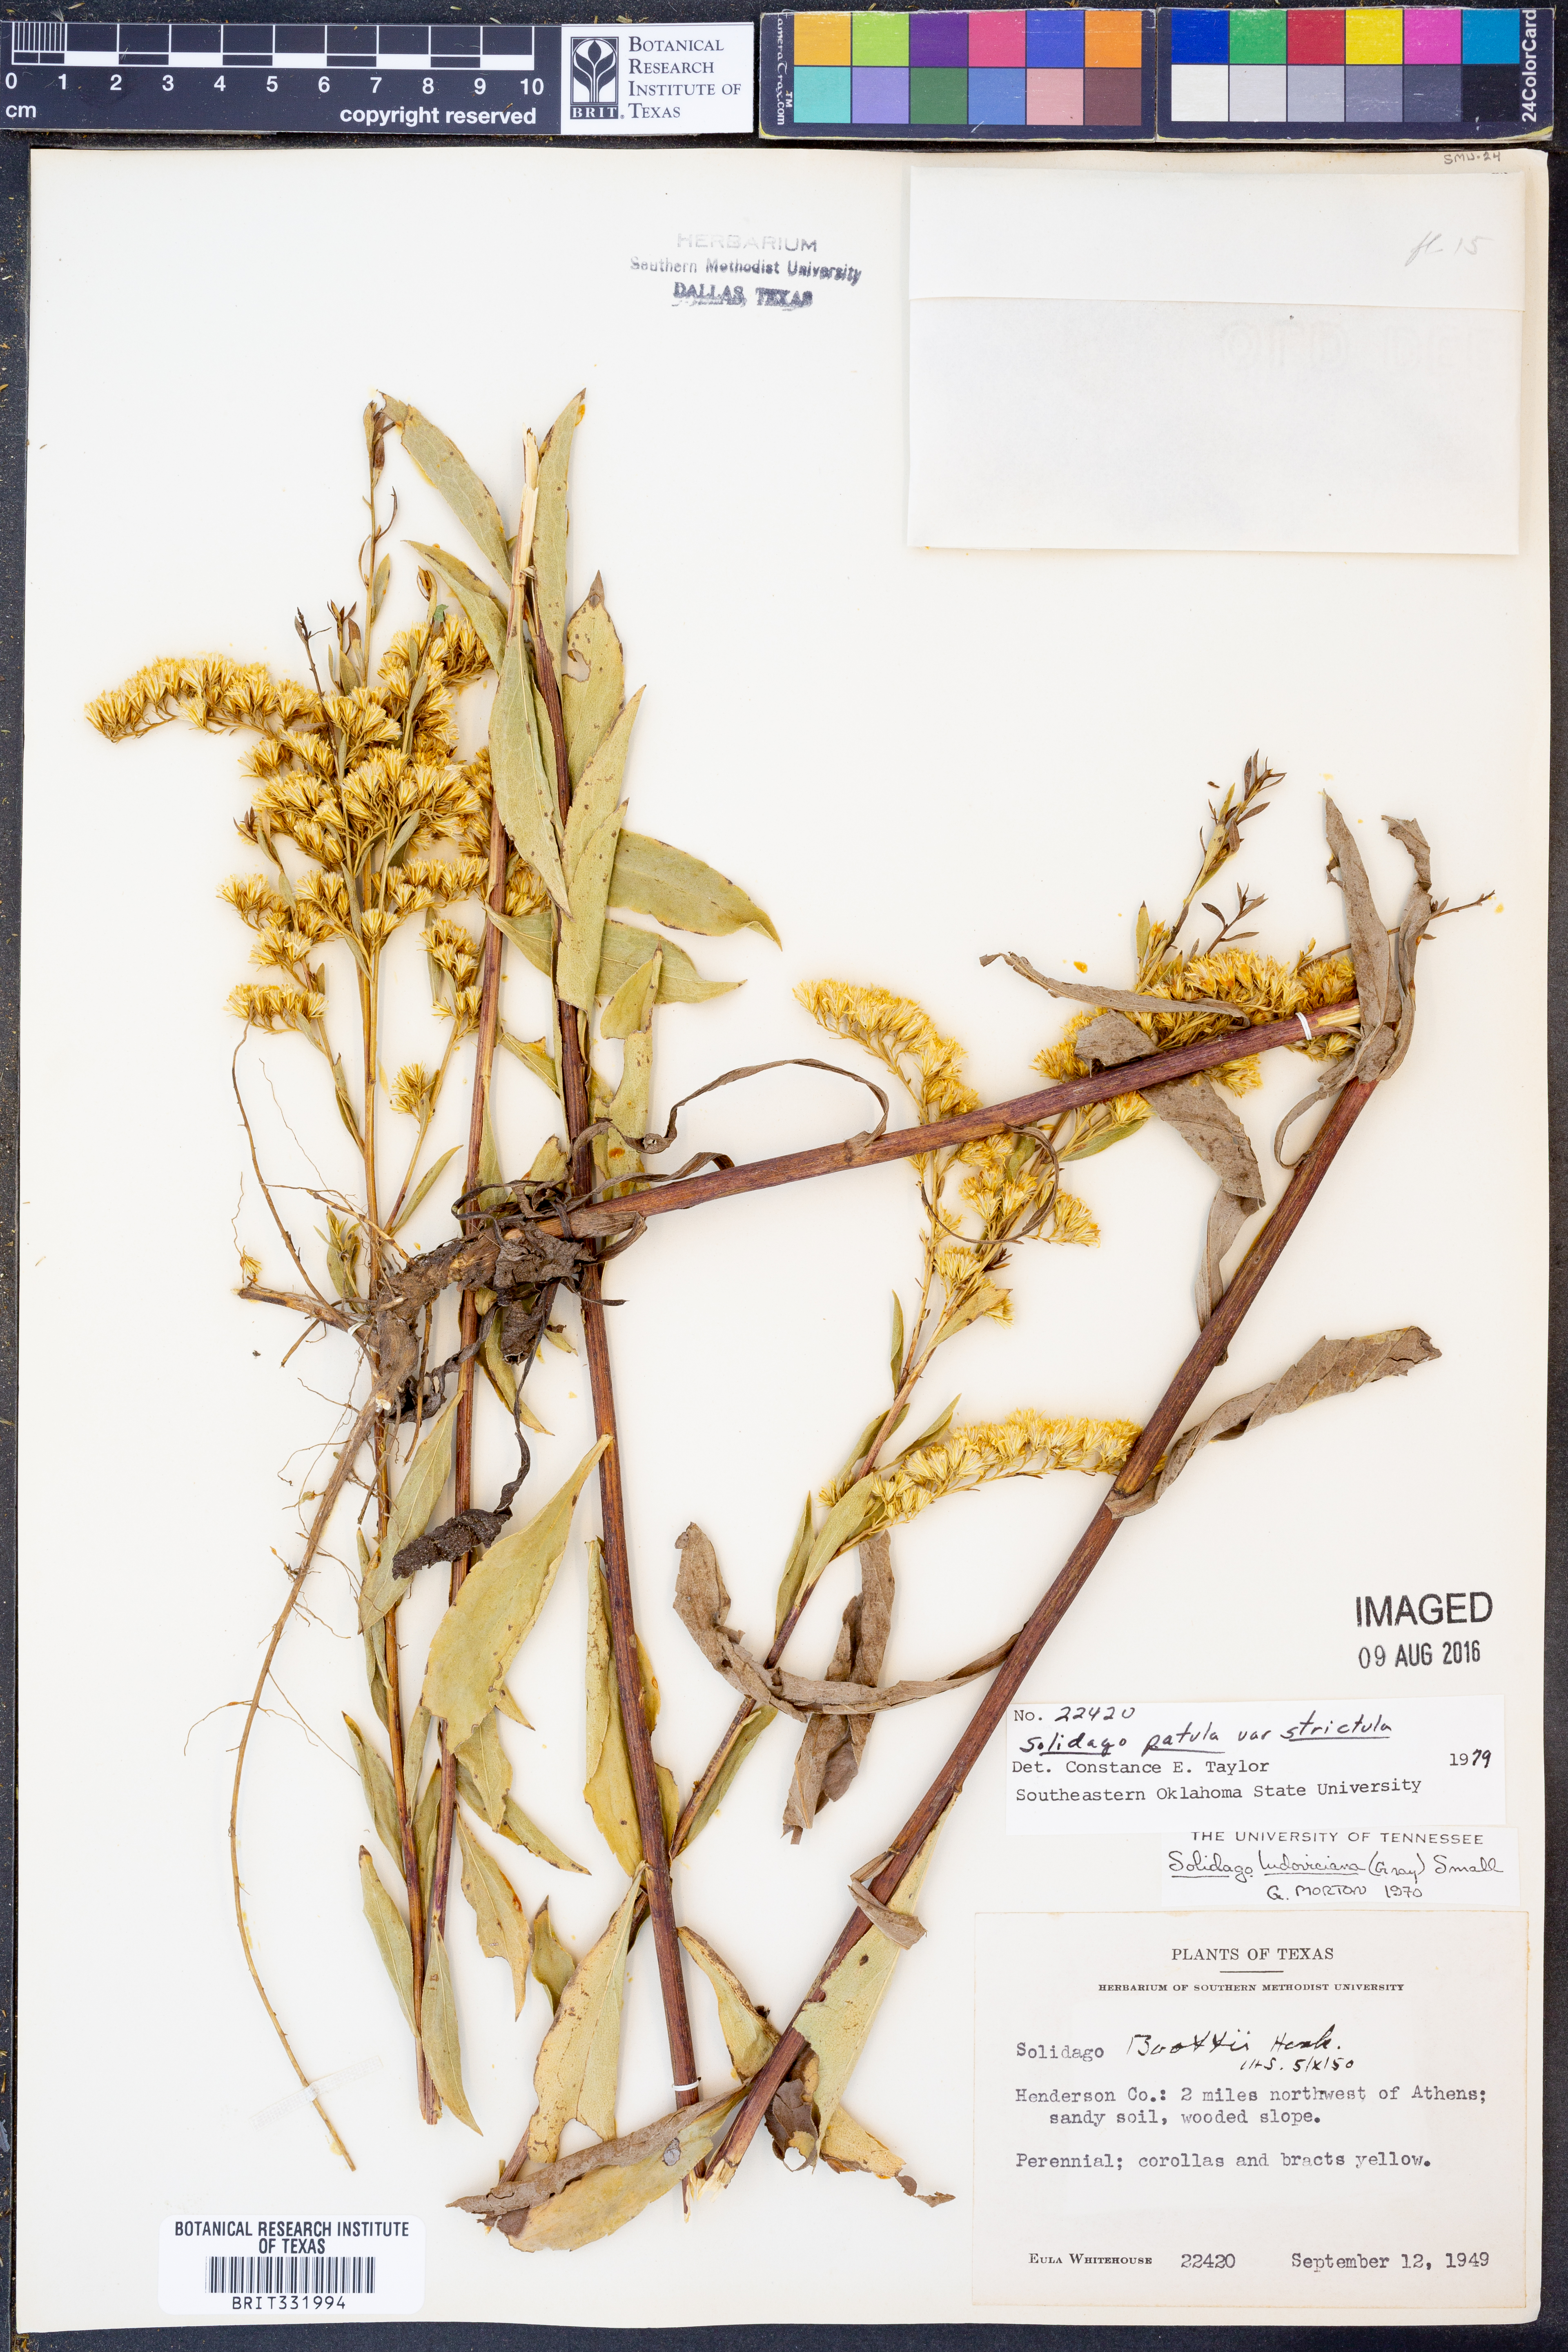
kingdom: Plantae
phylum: Tracheophyta
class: Magnoliopsida
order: Asterales
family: Asteraceae
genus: Solidago
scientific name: Solidago salicina
